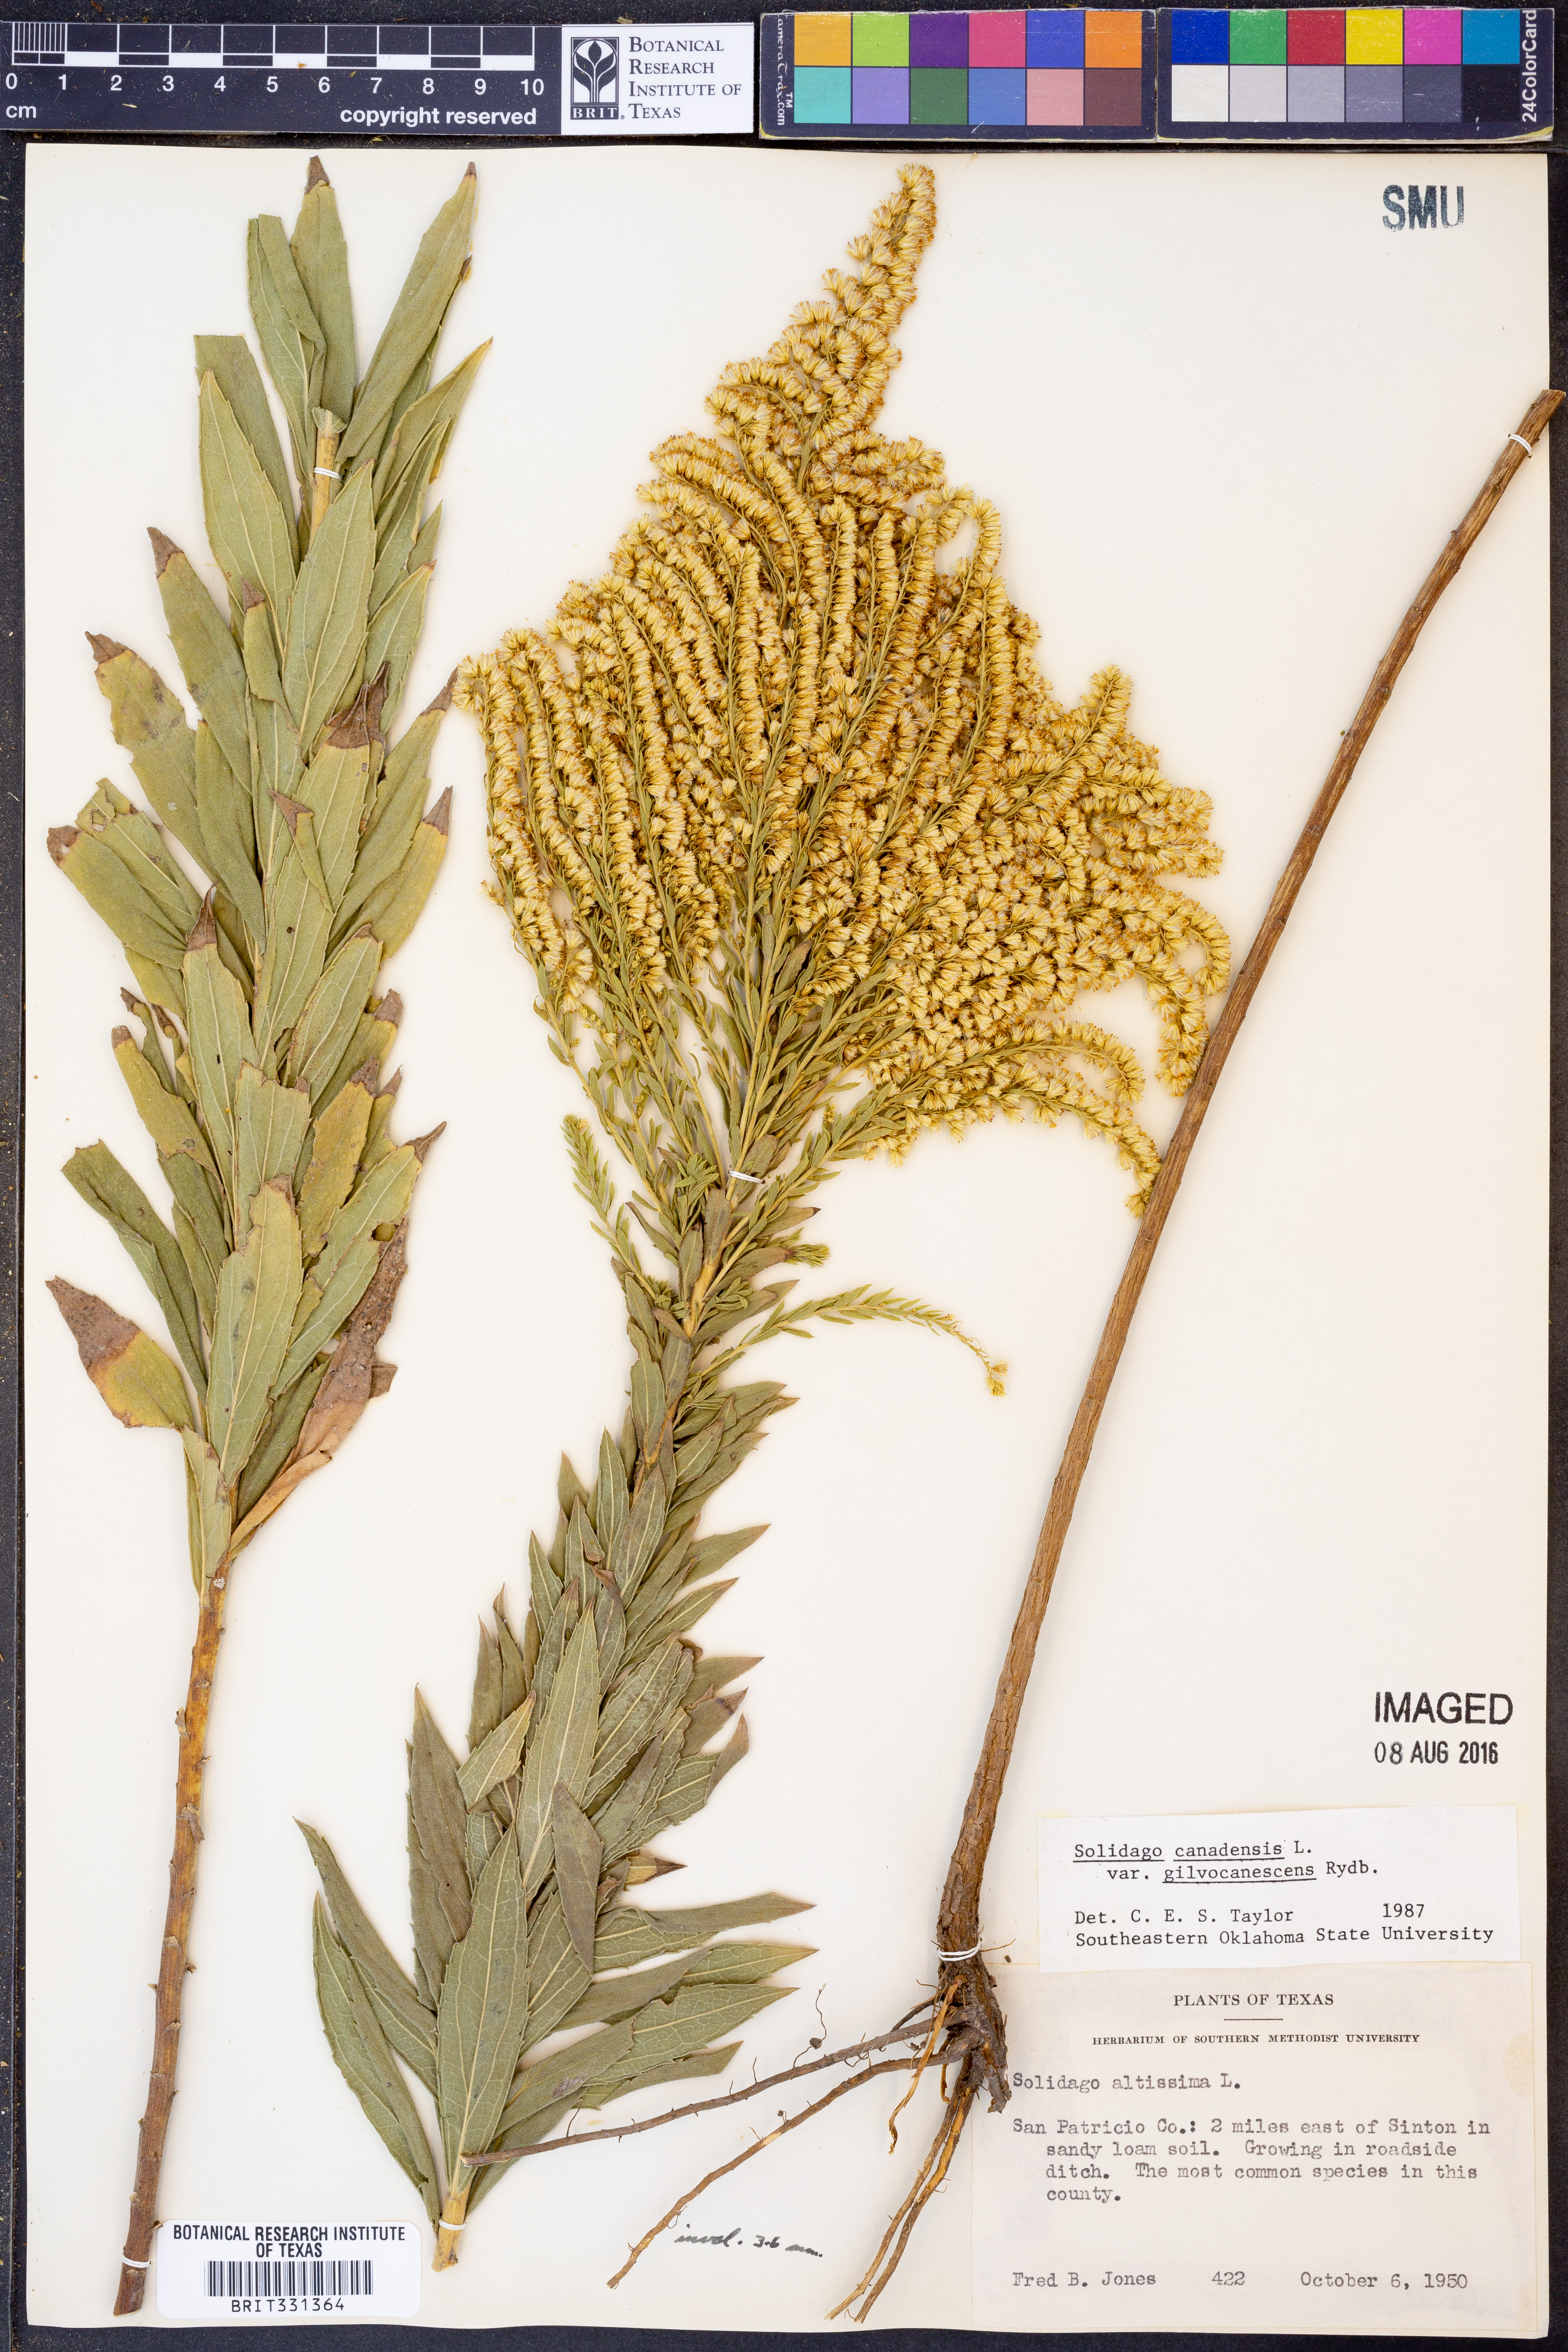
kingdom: Plantae
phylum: Tracheophyta
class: Magnoliopsida
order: Asterales
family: Asteraceae
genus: Solidago
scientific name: Solidago altissima
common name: Late goldenrod
